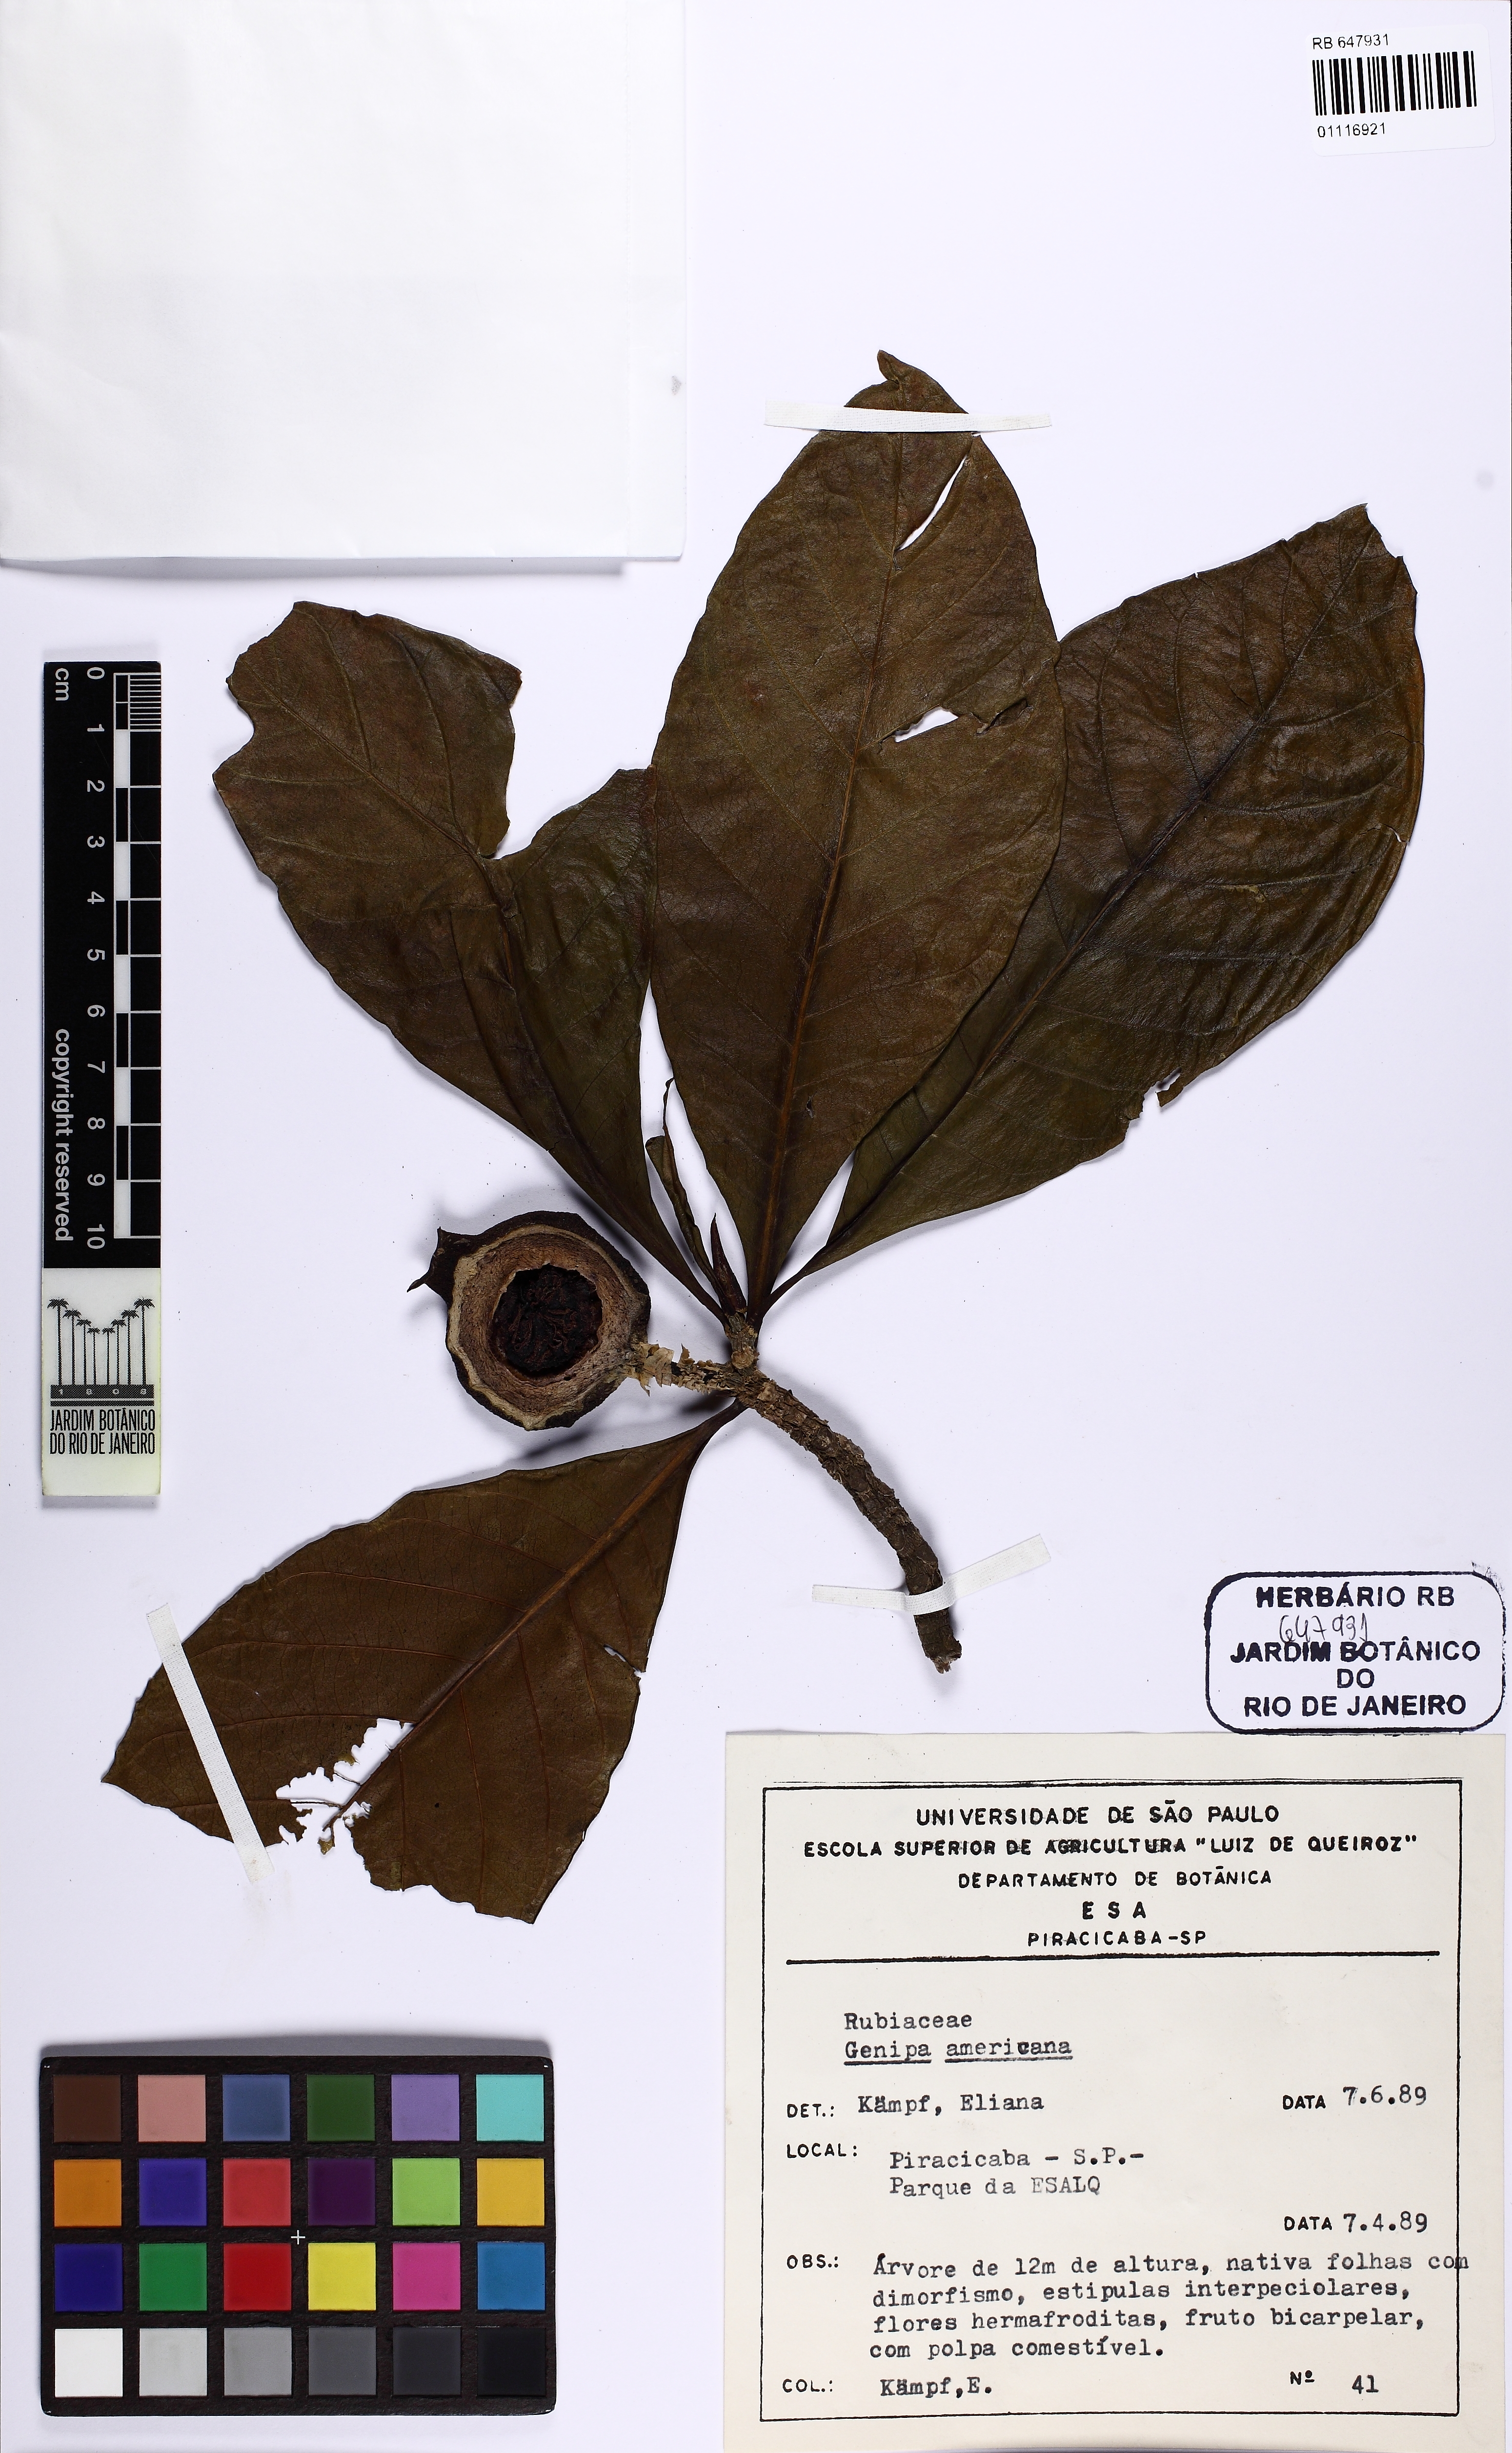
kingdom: Plantae
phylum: Tracheophyta
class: Magnoliopsida
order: Gentianales
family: Rubiaceae
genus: Genipa
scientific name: Genipa americana
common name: Genipap
